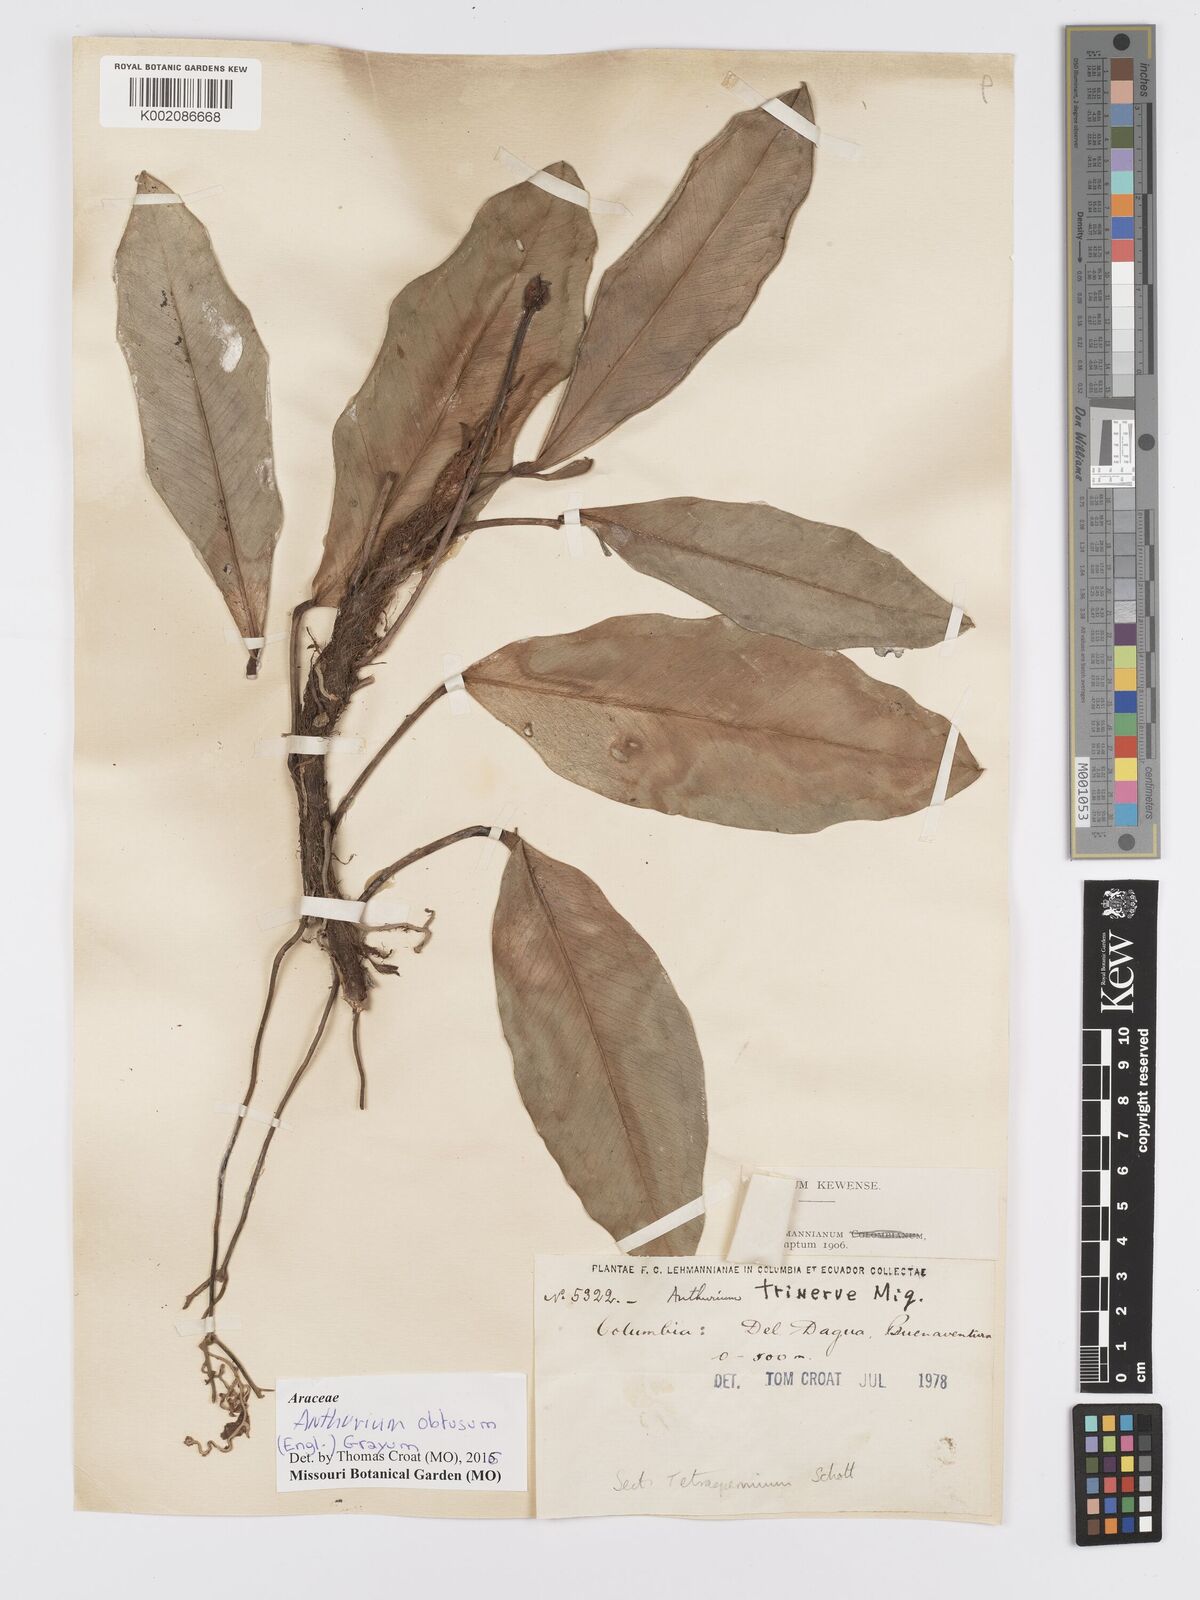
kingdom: Plantae
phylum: Tracheophyta
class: Liliopsida
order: Alismatales
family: Araceae
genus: Anthurium
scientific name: Anthurium obtusum
